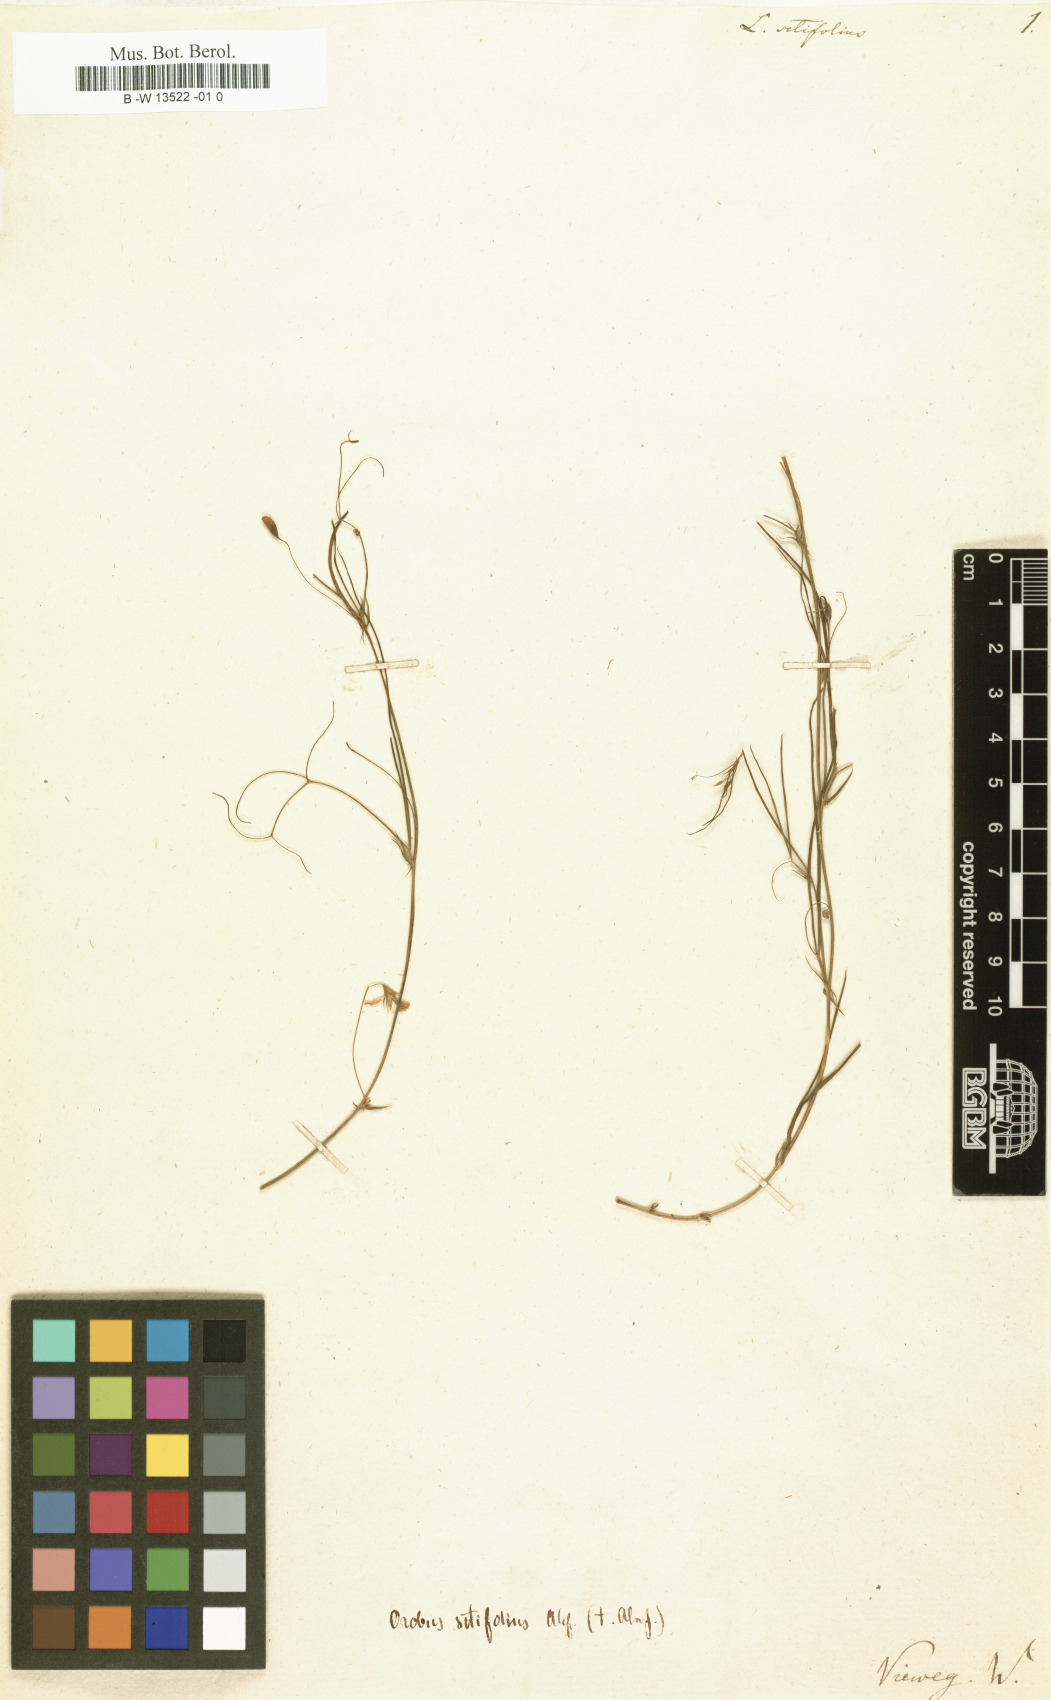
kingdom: Plantae
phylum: Tracheophyta
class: Magnoliopsida
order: Fabales
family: Fabaceae
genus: Lathyrus
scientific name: Lathyrus setifolius
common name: Brown vetchling
